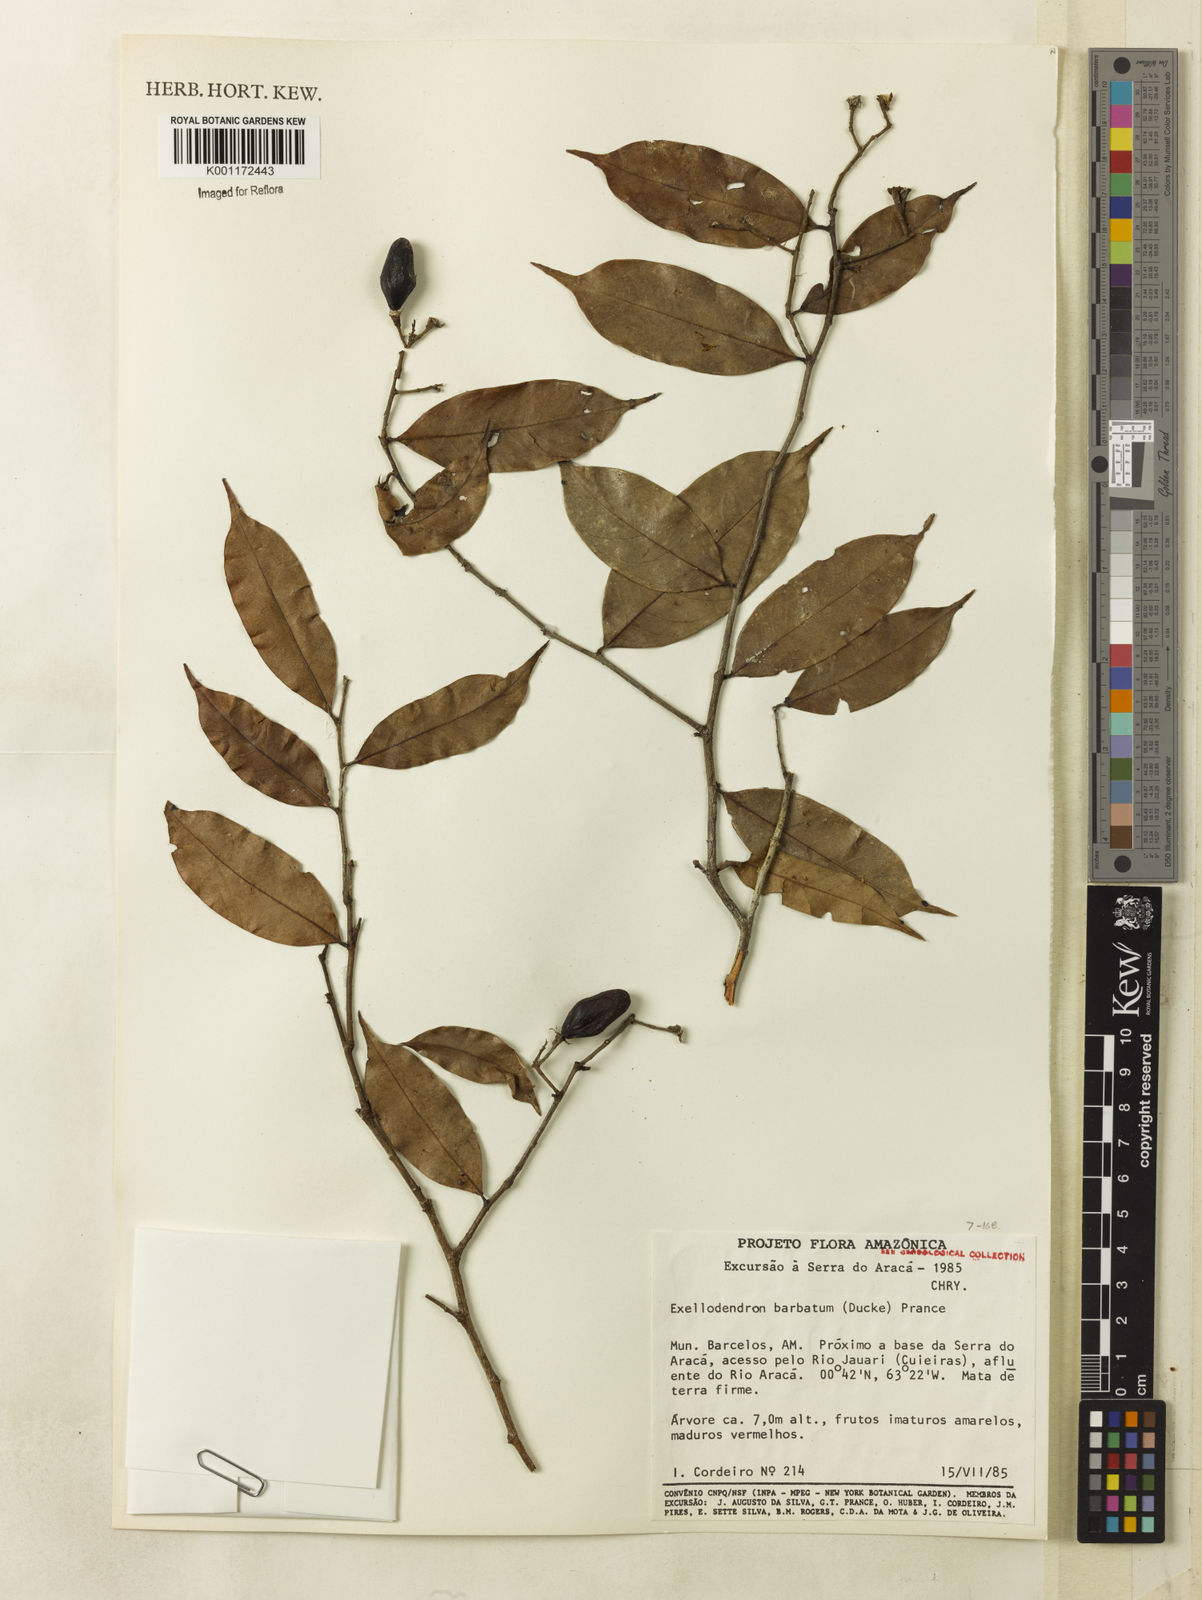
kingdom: Plantae
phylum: Tracheophyta
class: Magnoliopsida
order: Malpighiales
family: Chrysobalanaceae
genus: Atuna
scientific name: Atuna
